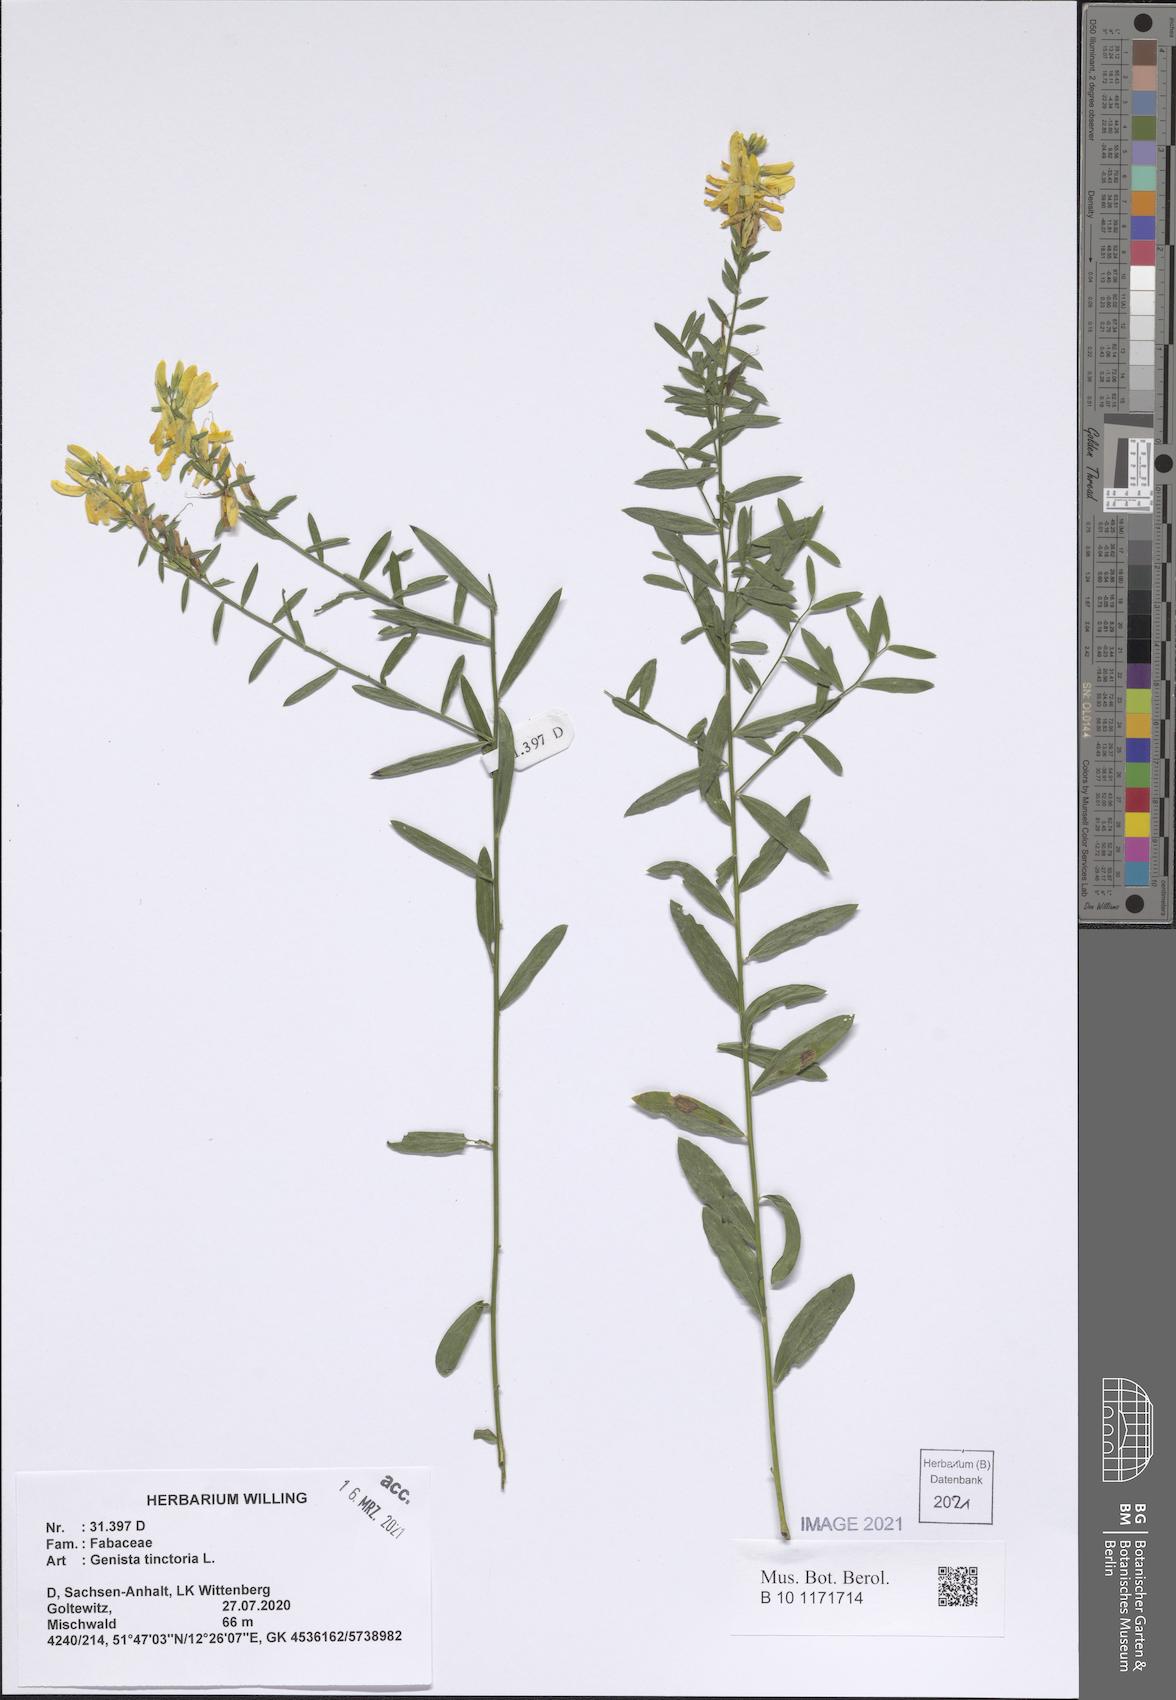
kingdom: Plantae
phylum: Tracheophyta
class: Magnoliopsida
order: Fabales
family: Fabaceae
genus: Genista
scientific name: Genista tinctoria
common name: Dyer's greenweed
